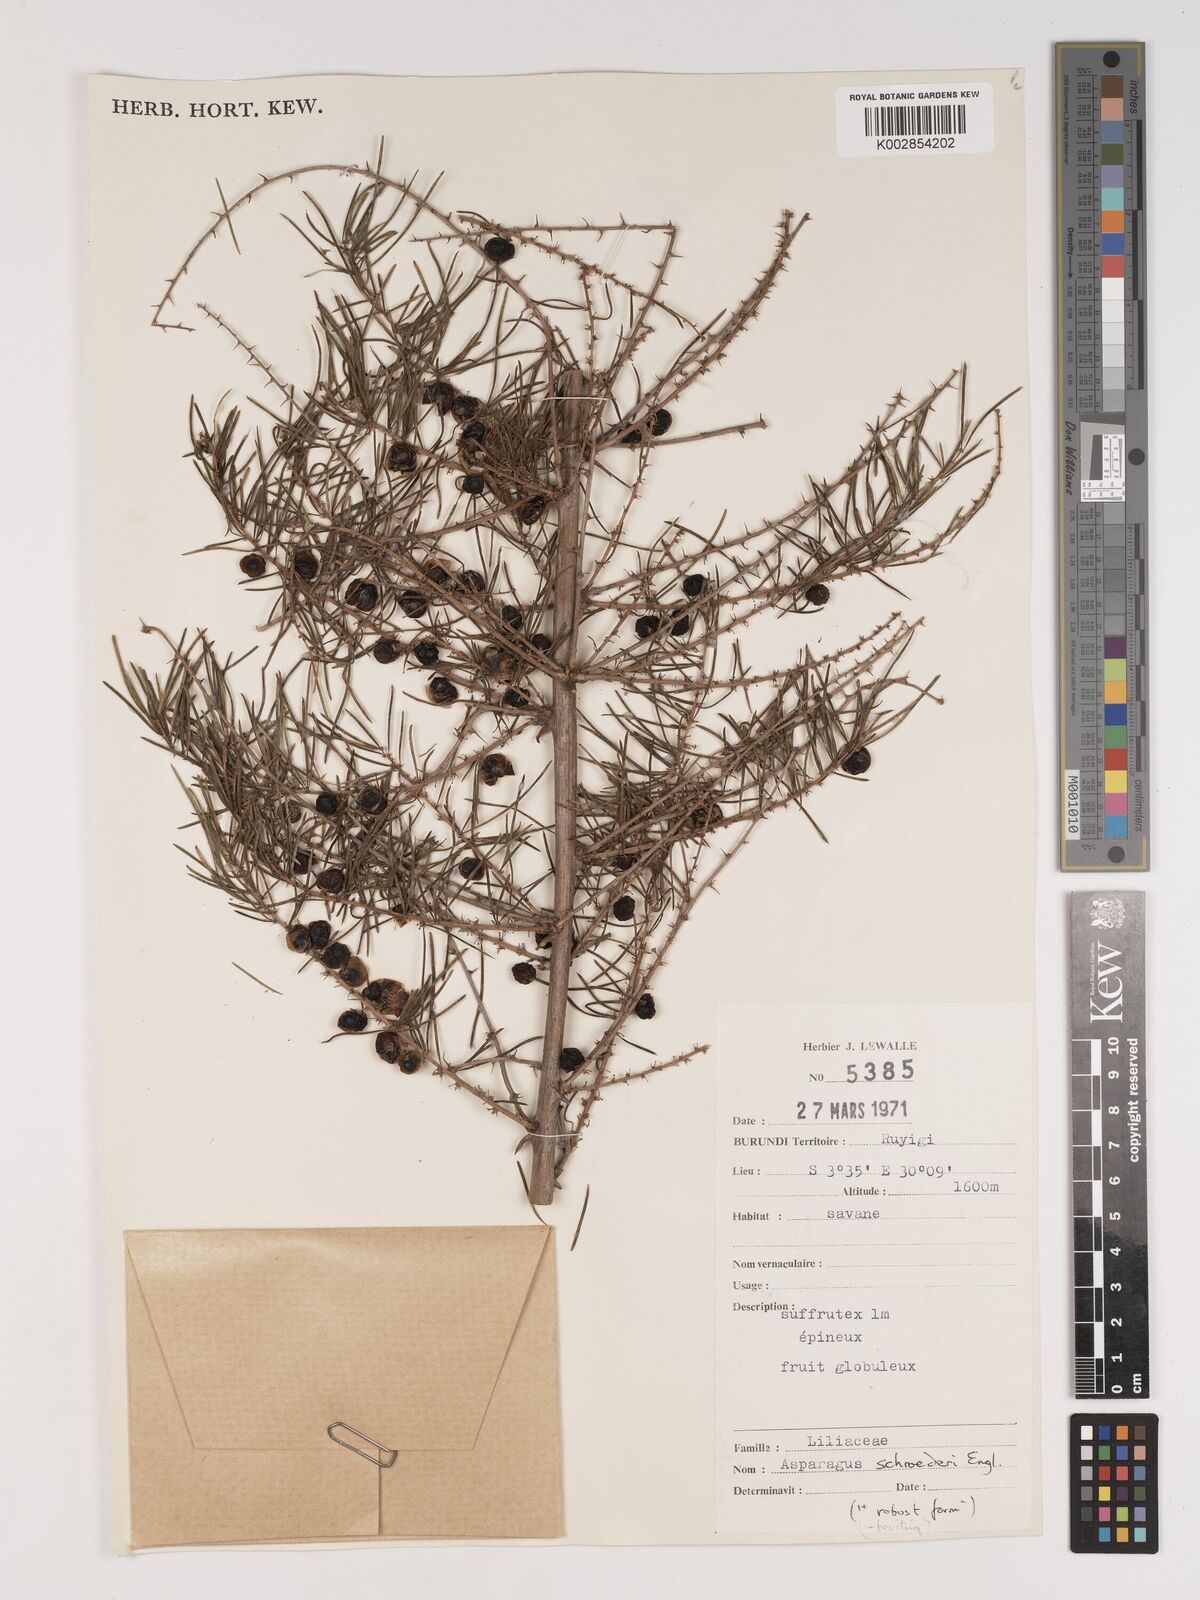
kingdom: Plantae
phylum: Tracheophyta
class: Liliopsida
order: Asparagales
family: Asparagaceae
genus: Asparagus
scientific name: Asparagus schroederi
